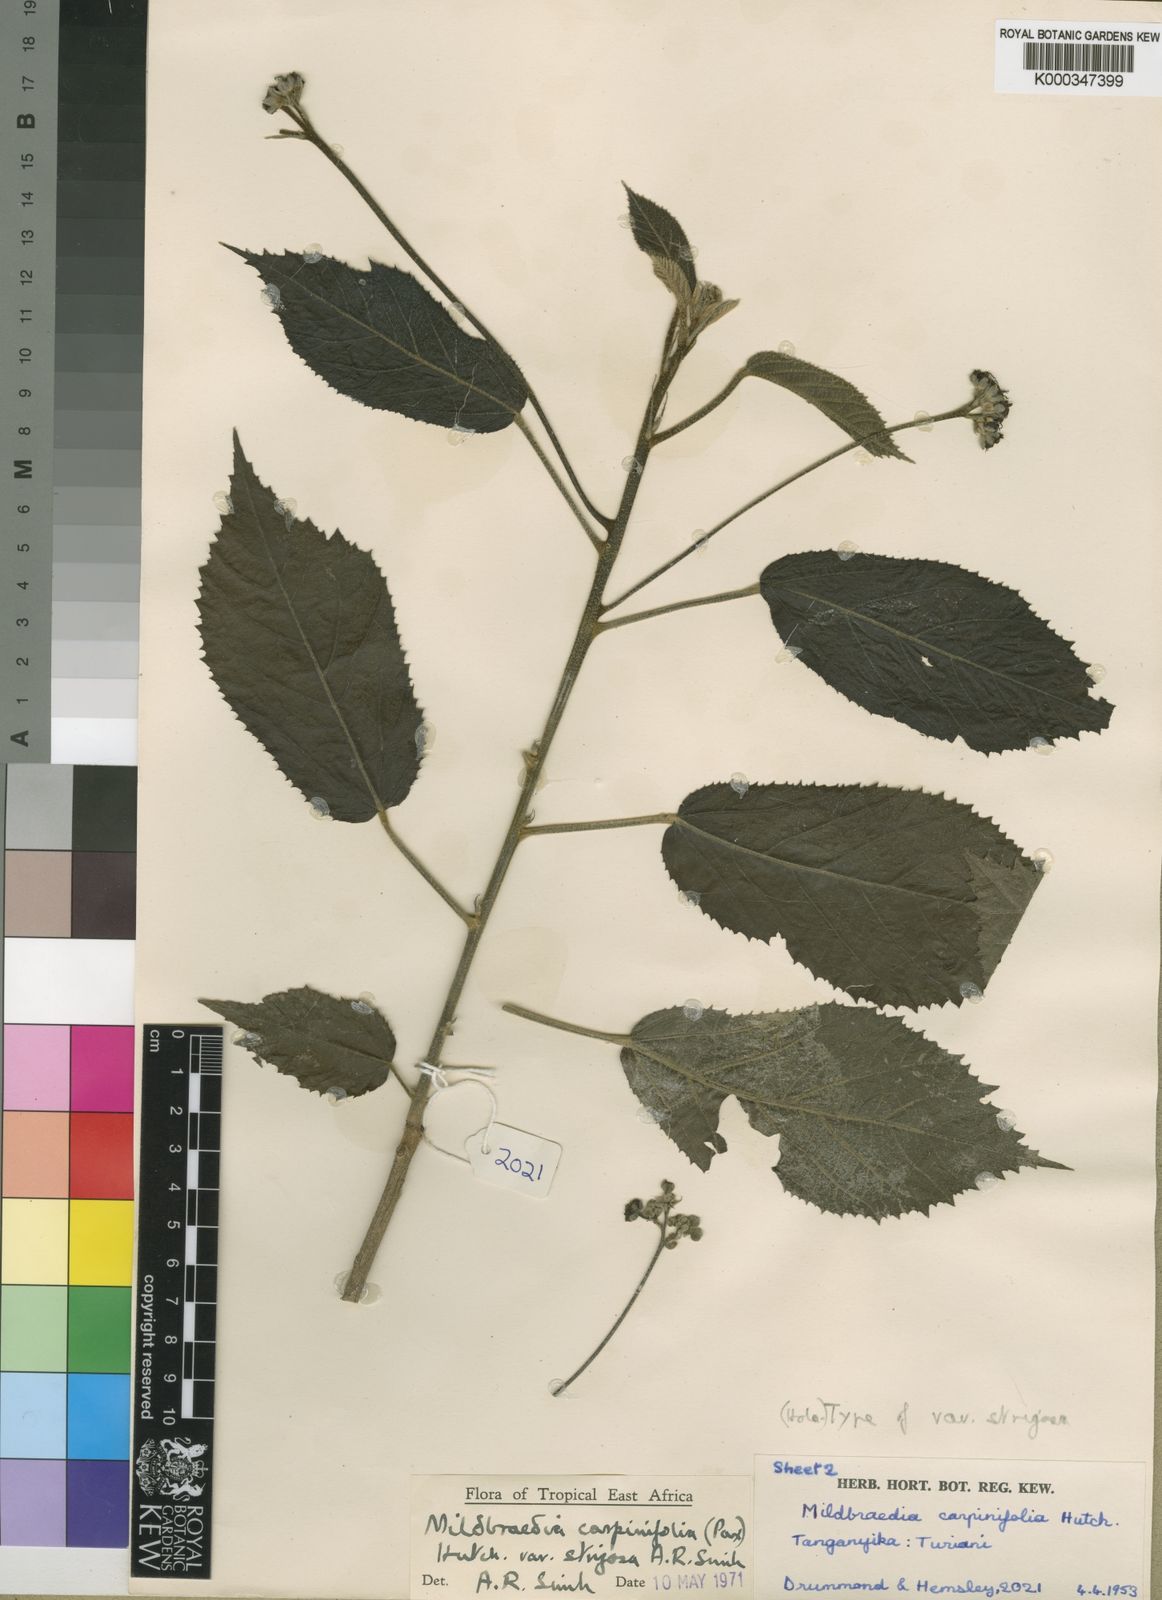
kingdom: Plantae
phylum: Tracheophyta
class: Magnoliopsida
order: Malpighiales
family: Euphorbiaceae
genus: Mildbraedia
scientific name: Mildbraedia carpinifolia
